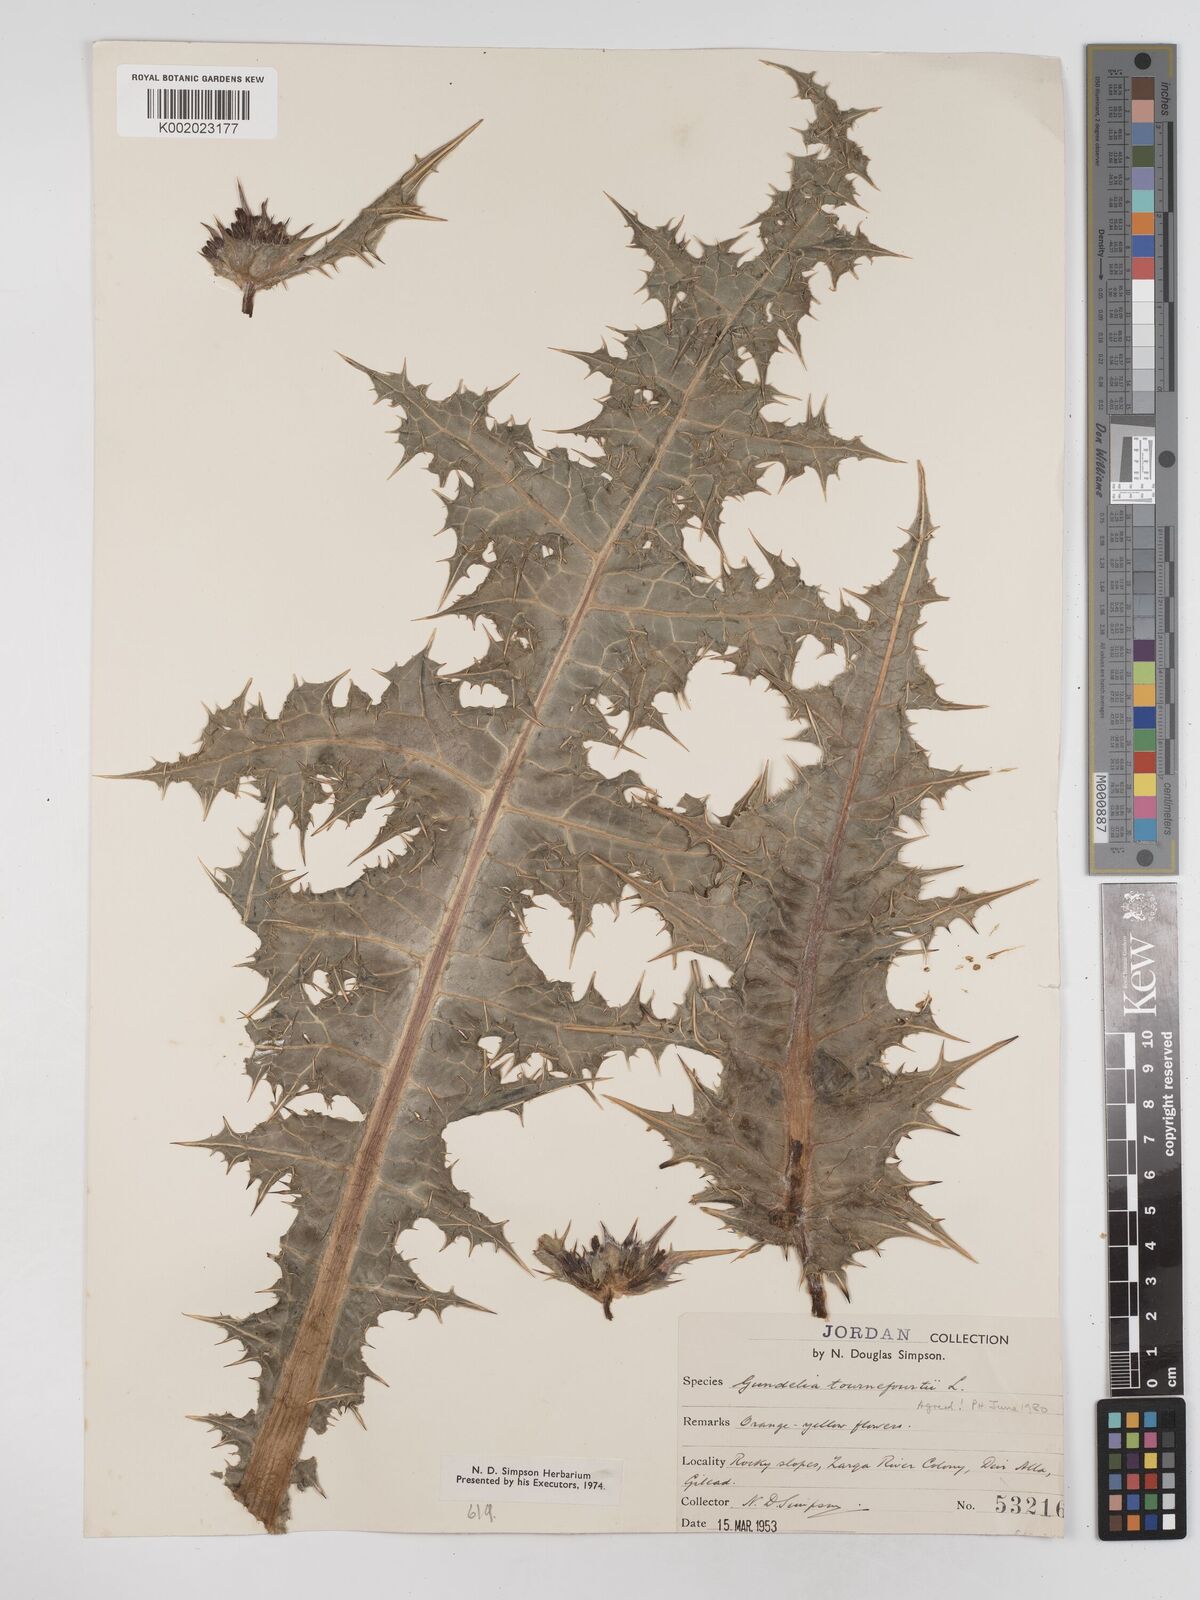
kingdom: Plantae
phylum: Tracheophyta
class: Magnoliopsida
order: Asterales
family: Asteraceae
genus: Gundelia
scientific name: Gundelia tournefortii
